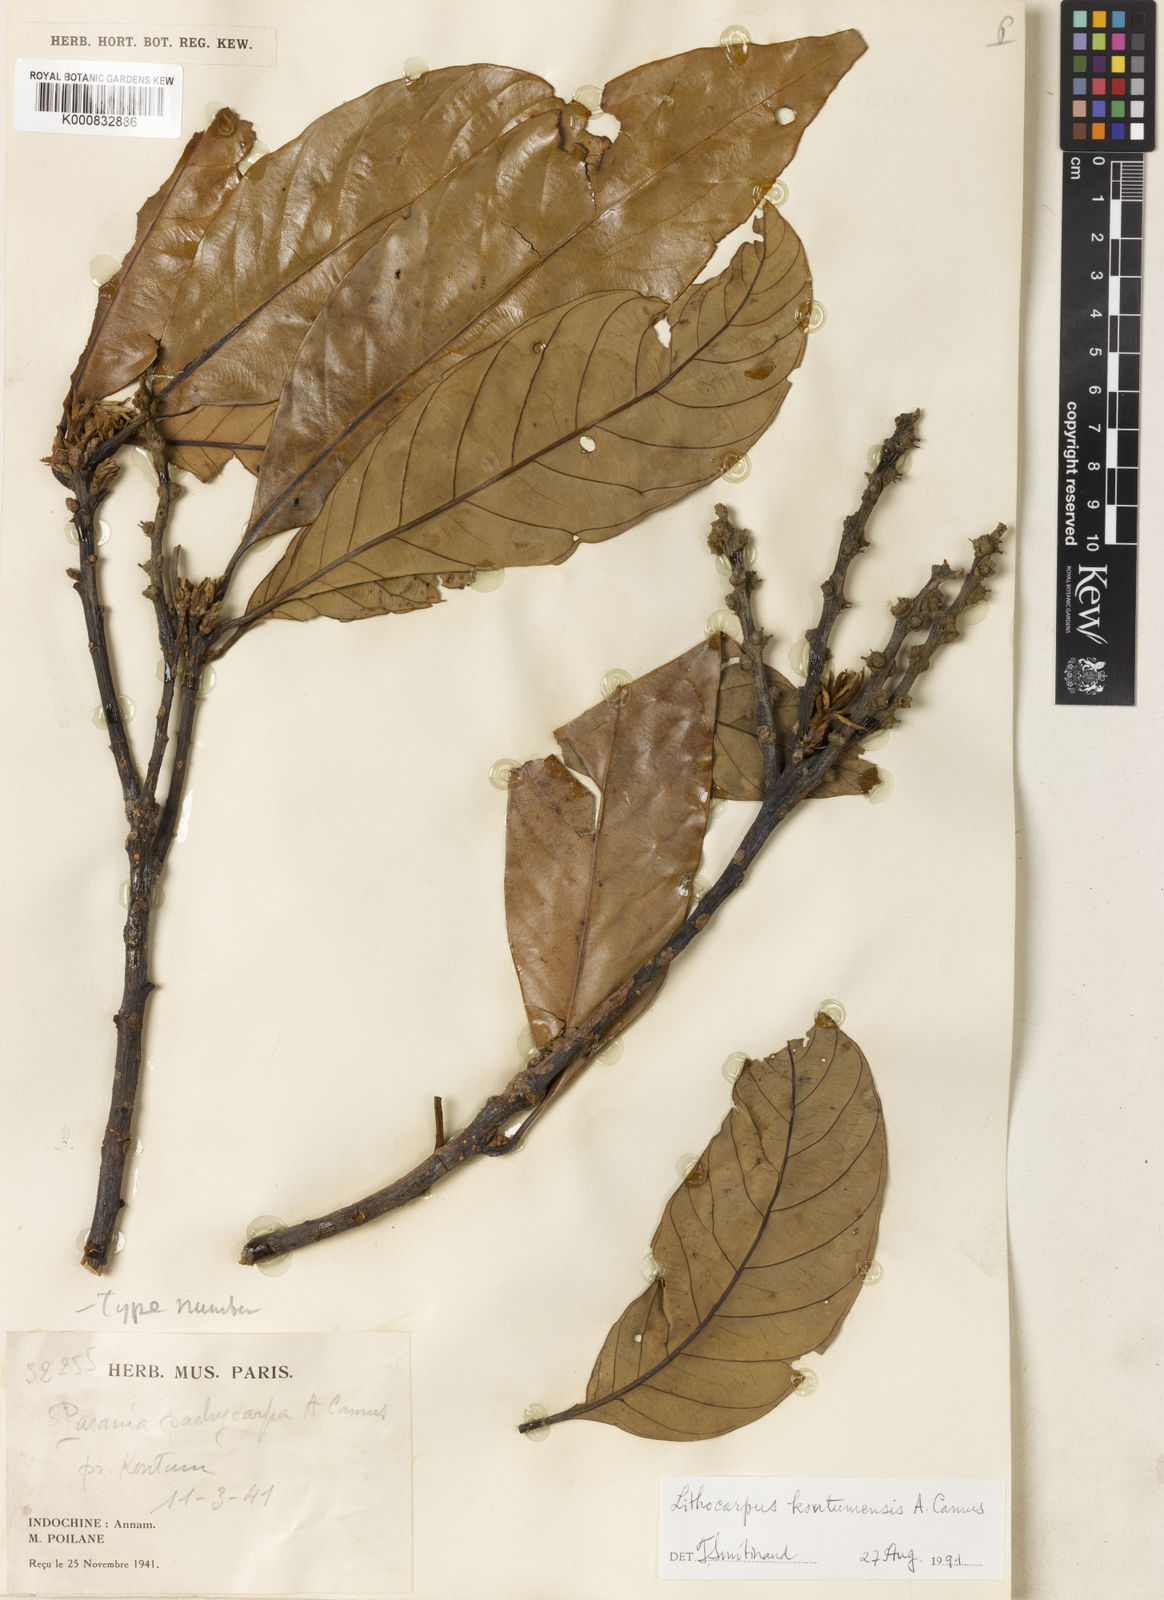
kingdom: Plantae
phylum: Tracheophyta
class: Magnoliopsida
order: Fagales
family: Fagaceae
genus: Lithocarpus
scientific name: Lithocarpus kontumensis
